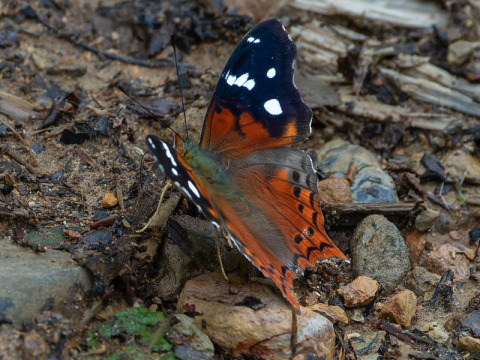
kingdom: Animalia
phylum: Arthropoda
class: Insecta
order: Lepidoptera
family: Nymphalidae
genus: Hypanartia
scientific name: Hypanartia trimaculata
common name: Reddish Mapwing
